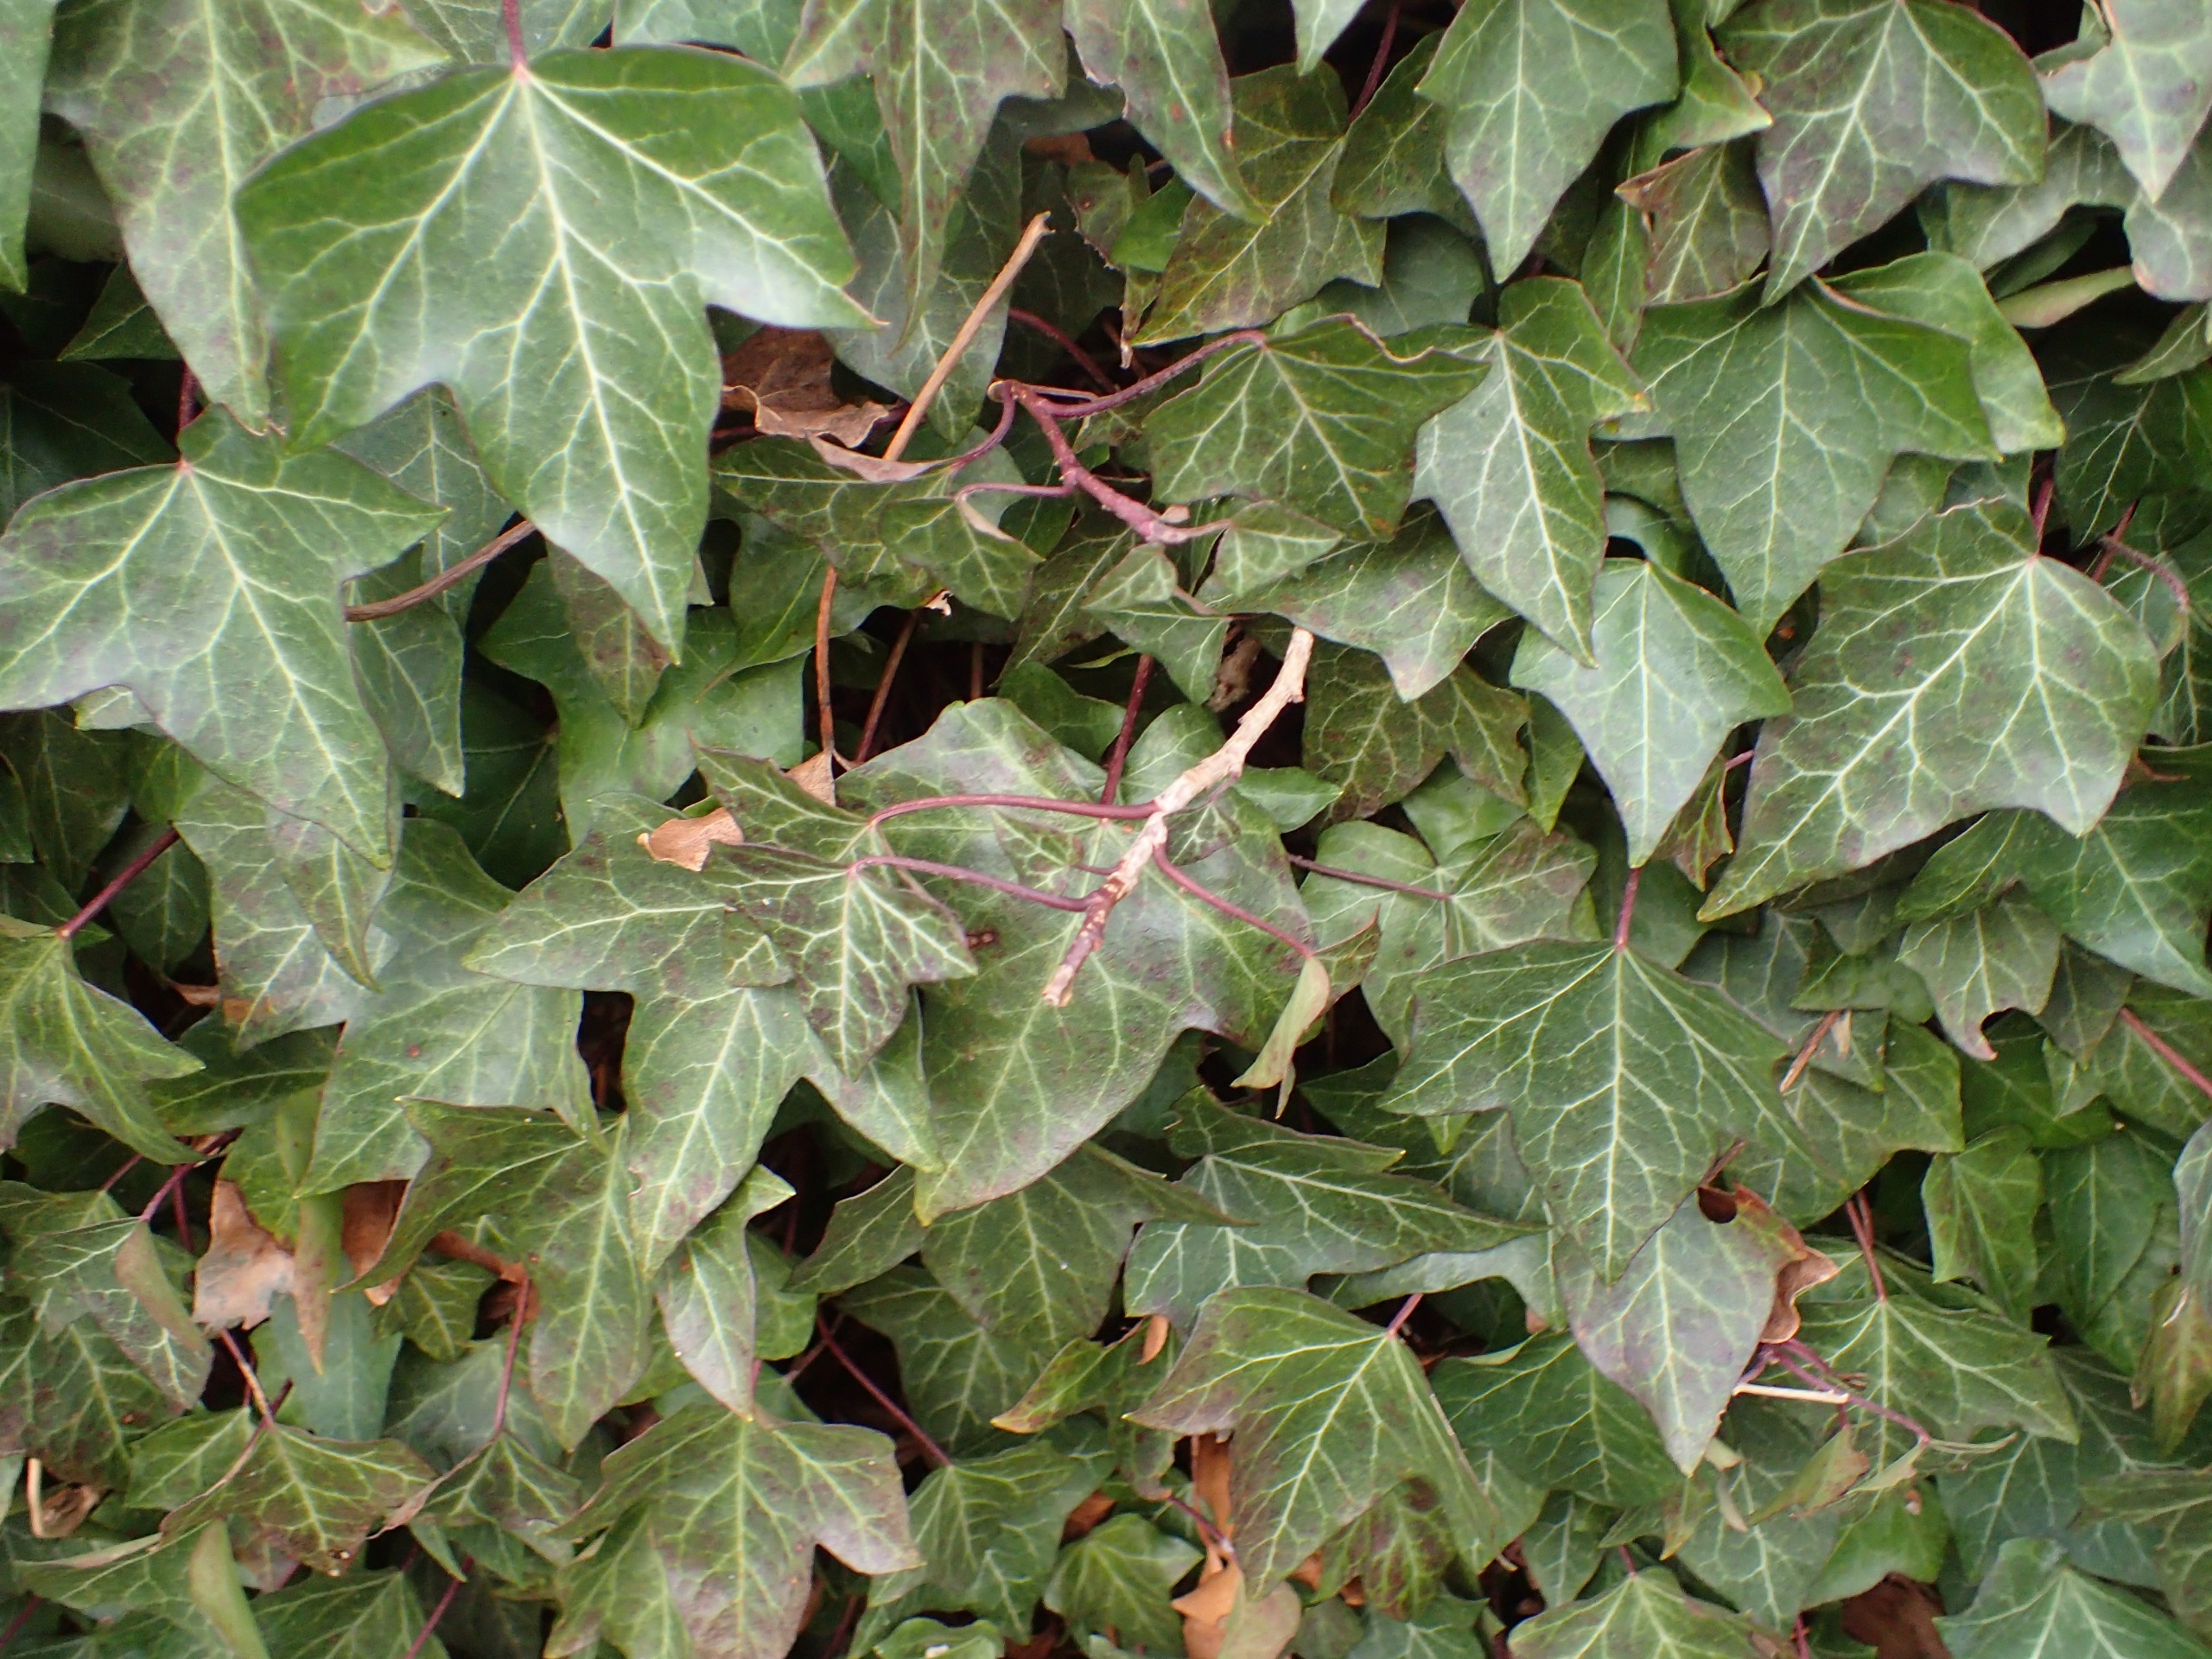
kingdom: Plantae
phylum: Tracheophyta
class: Magnoliopsida
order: Apiales
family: Araliaceae
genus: Hedera
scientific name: Hedera helix
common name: Vedbend
